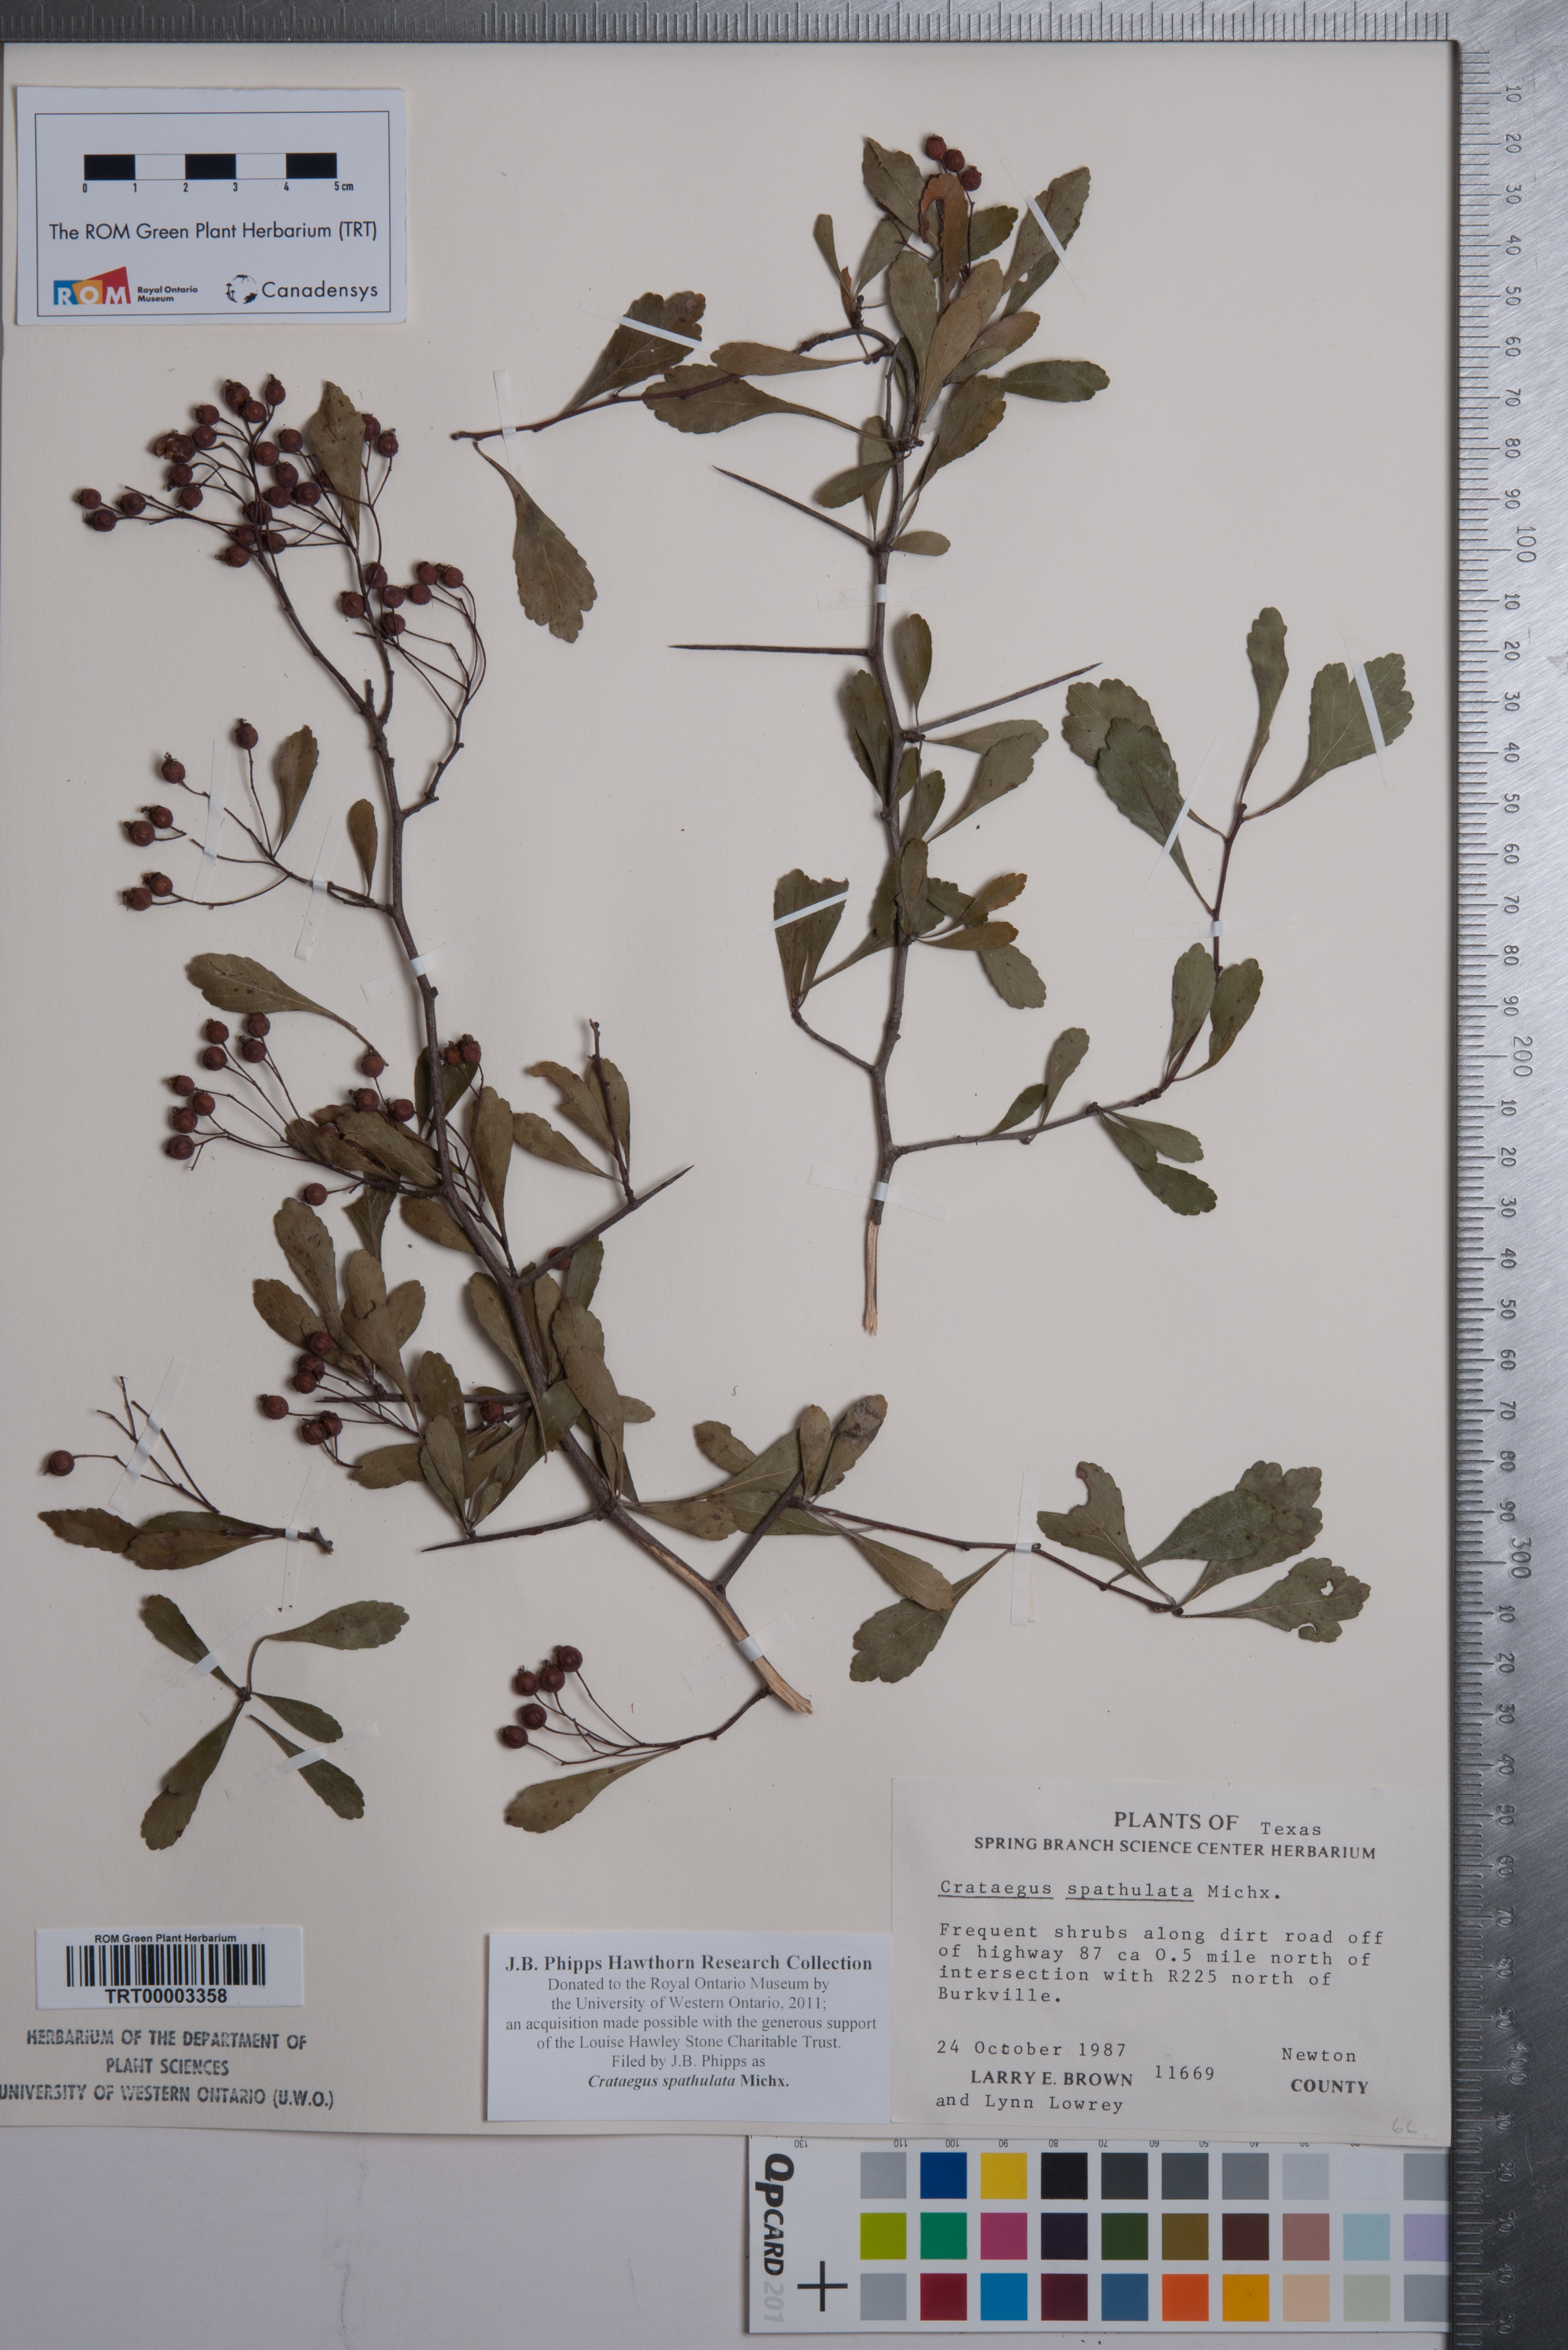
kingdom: Plantae
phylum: Tracheophyta
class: Magnoliopsida
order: Rosales
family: Rosaceae
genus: Crataegus
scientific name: Crataegus spathulata
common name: Littlehip hawthorn
